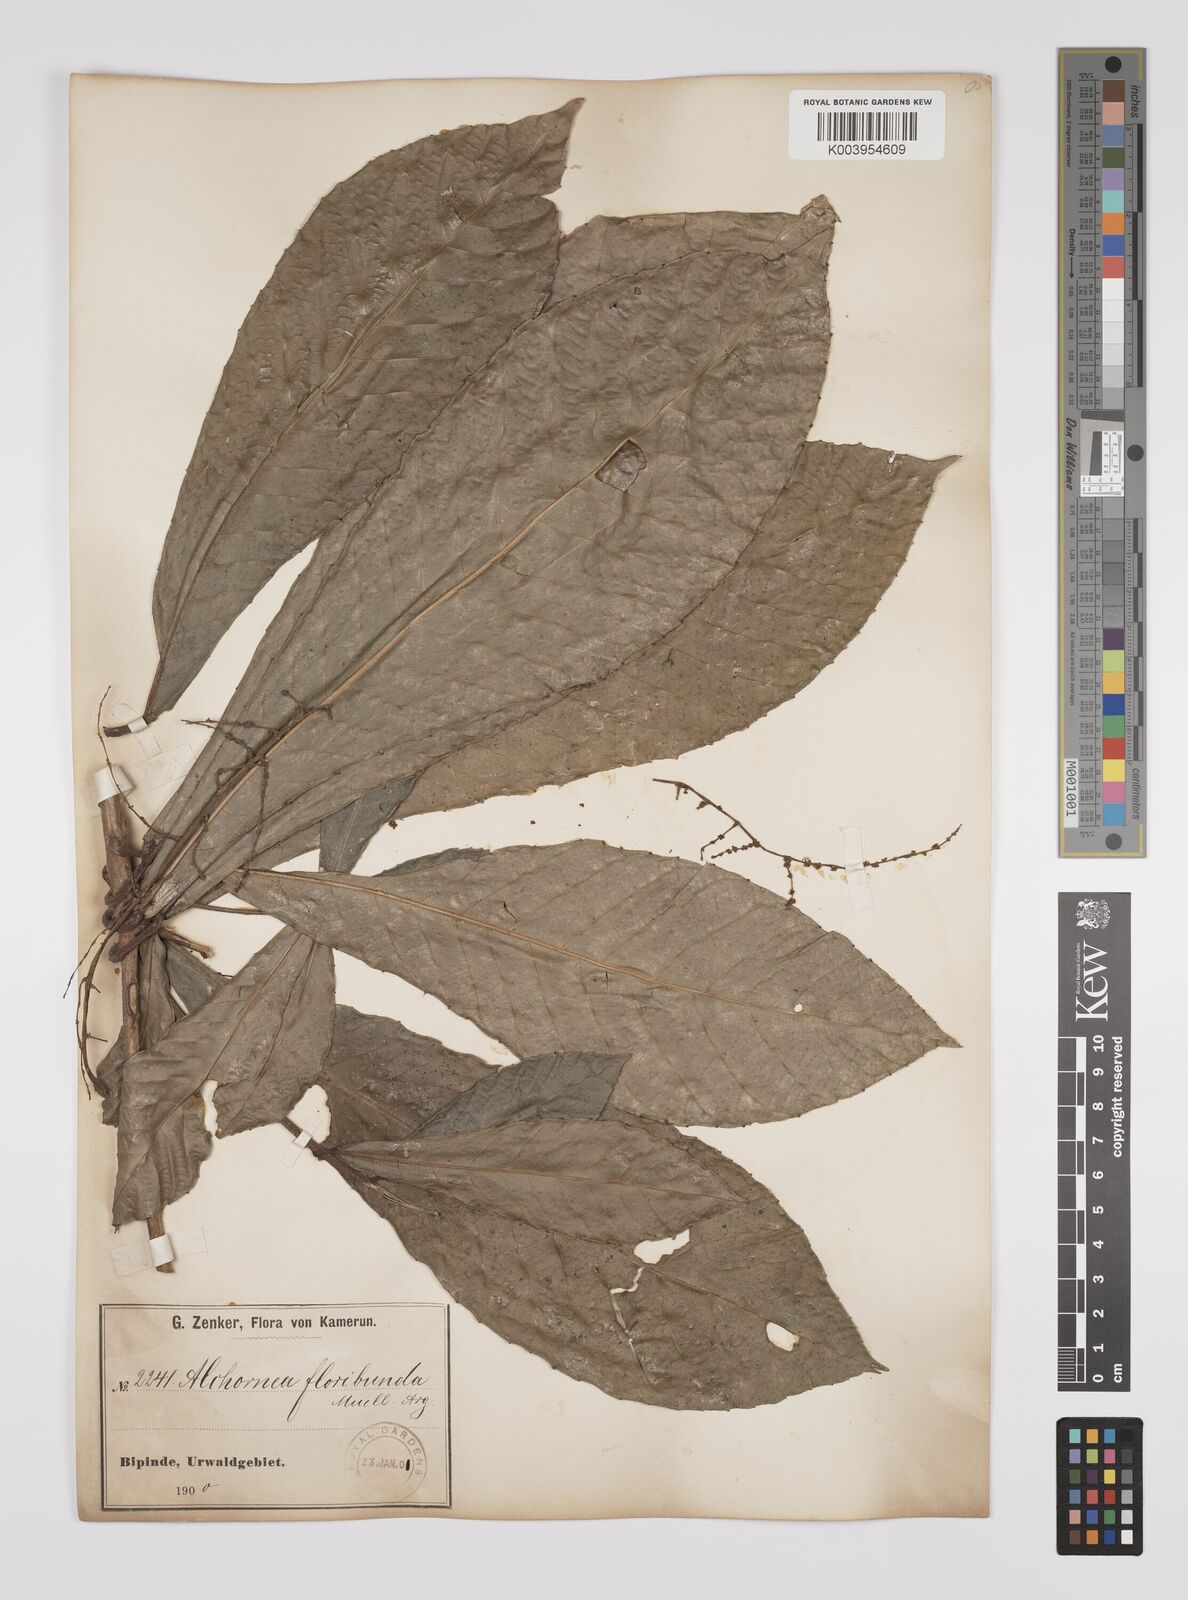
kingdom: Plantae
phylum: Tracheophyta
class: Magnoliopsida
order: Malpighiales
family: Euphorbiaceae
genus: Alchornea
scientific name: Alchornea floribunda
